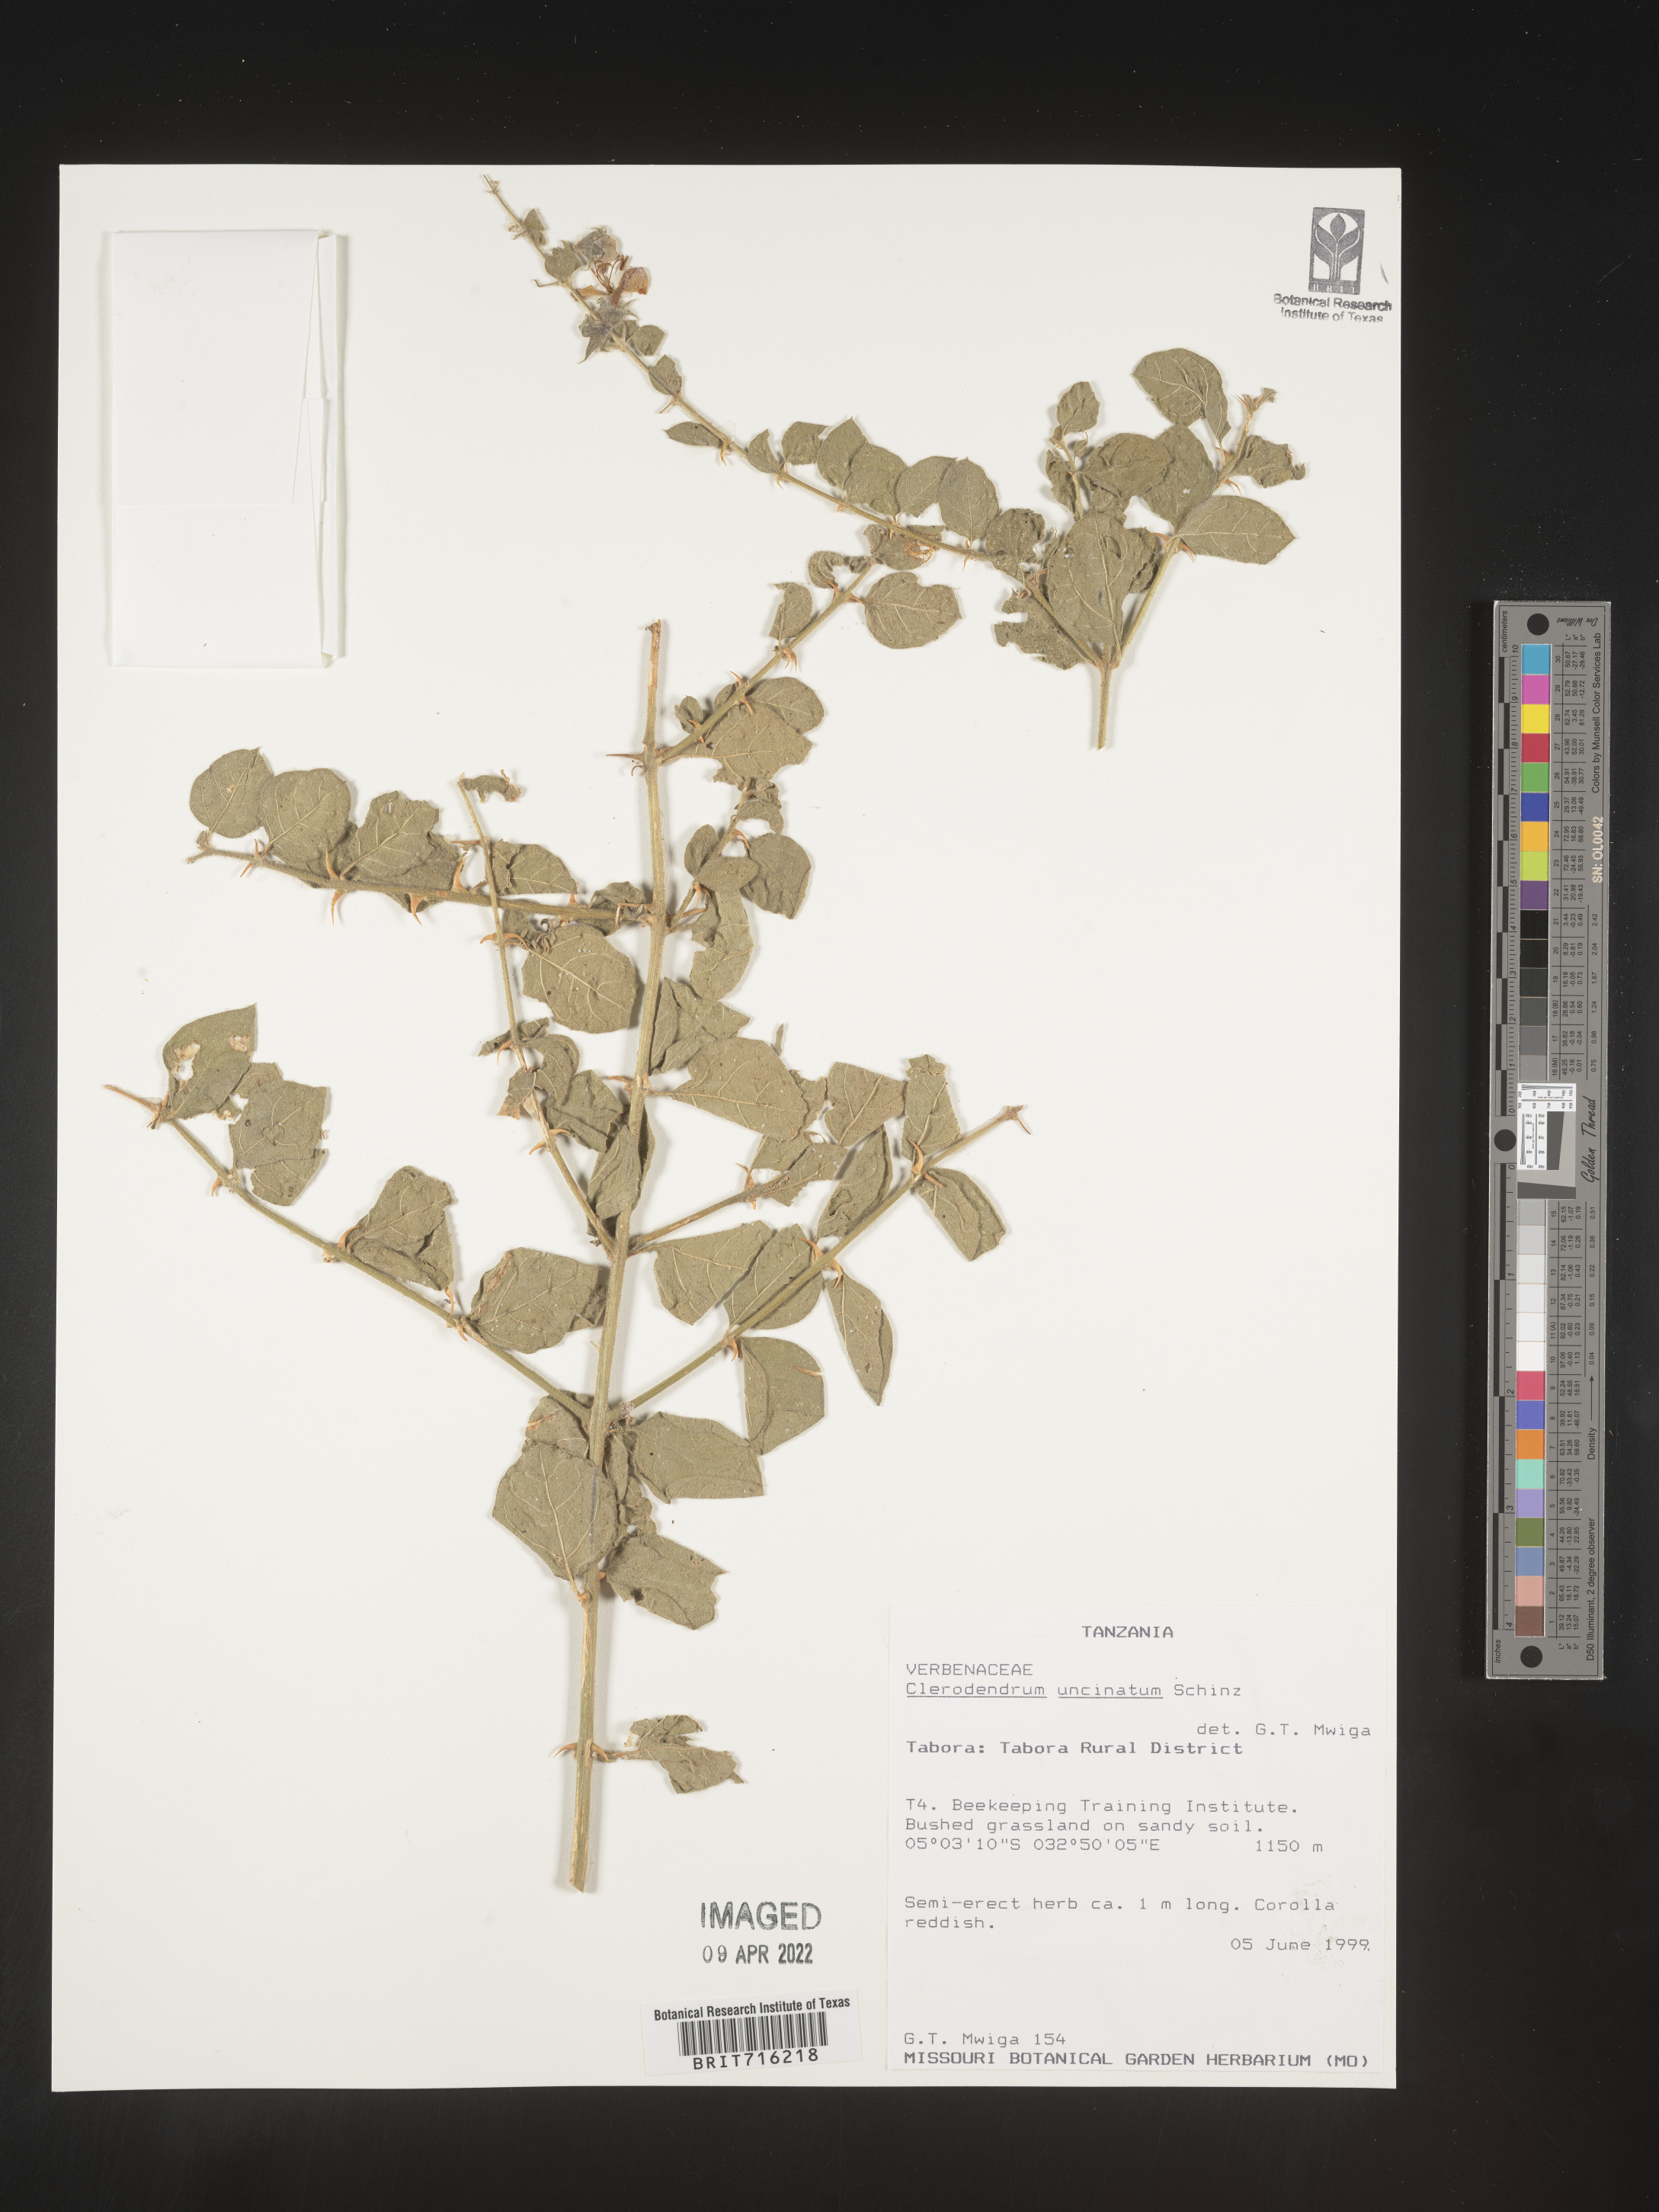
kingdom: Plantae
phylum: Tracheophyta
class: Magnoliopsida
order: Lamiales
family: Lamiaceae
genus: Clerodendrum
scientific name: Clerodendrum
